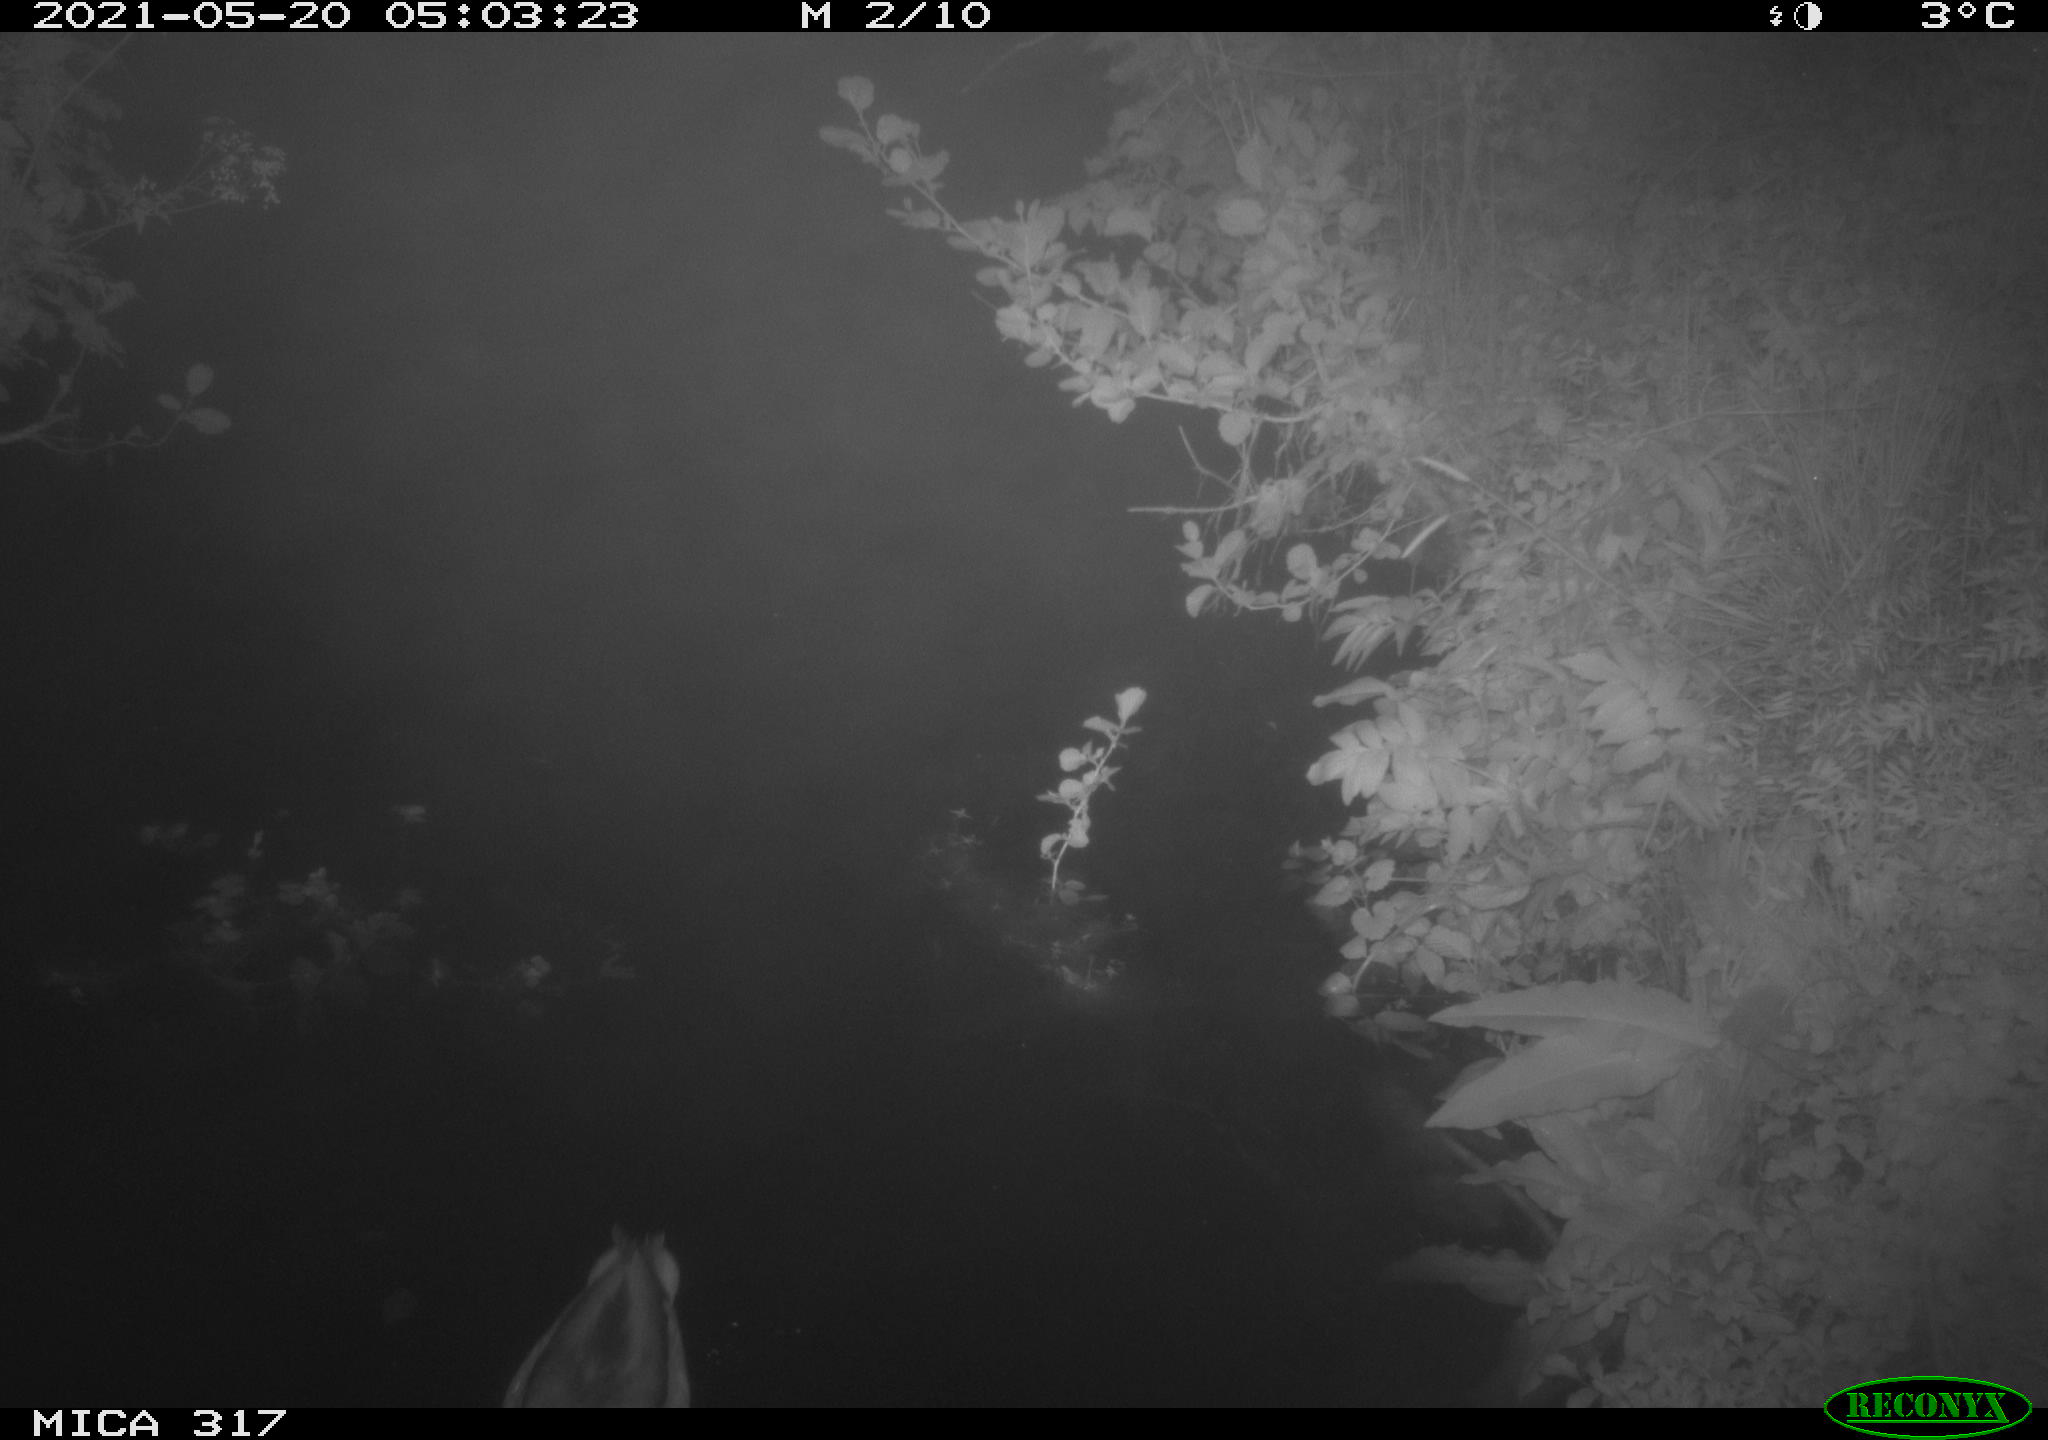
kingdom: Animalia
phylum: Chordata
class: Aves
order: Anseriformes
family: Anatidae
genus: Anas
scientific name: Anas
